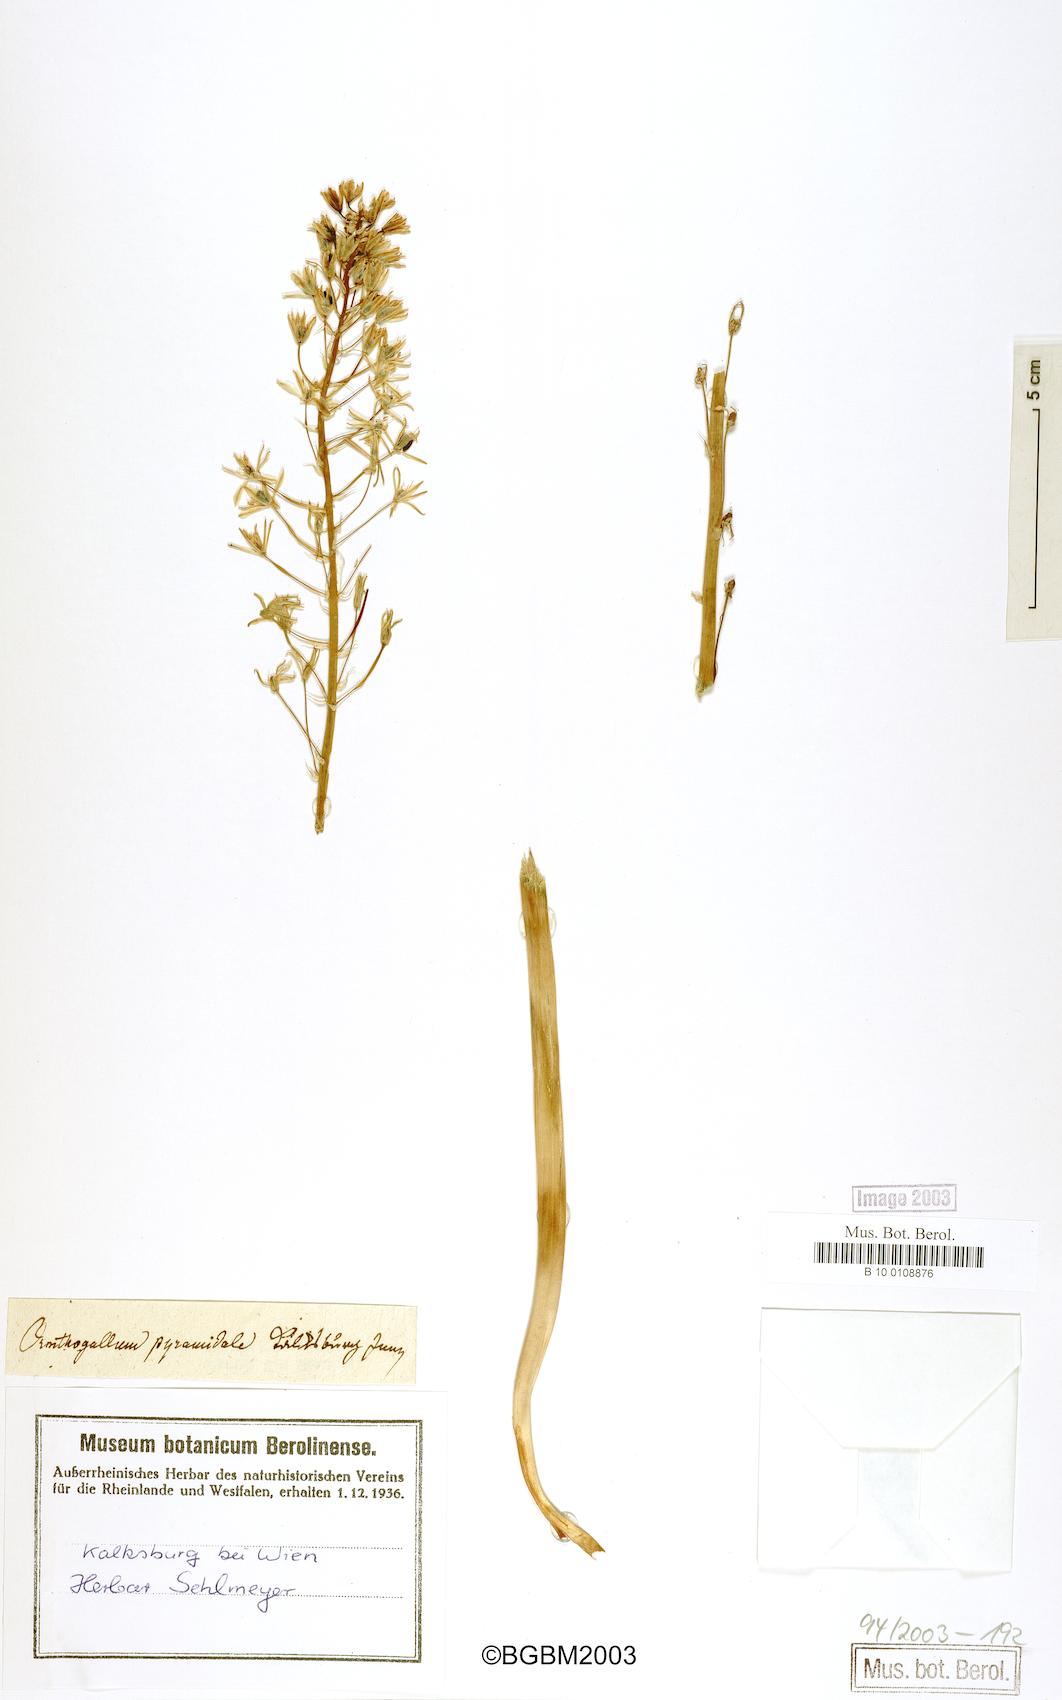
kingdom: Plantae
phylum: Tracheophyta
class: Liliopsida
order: Asparagales
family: Asparagaceae
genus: Ornithogalum
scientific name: Ornithogalum pyramidale
